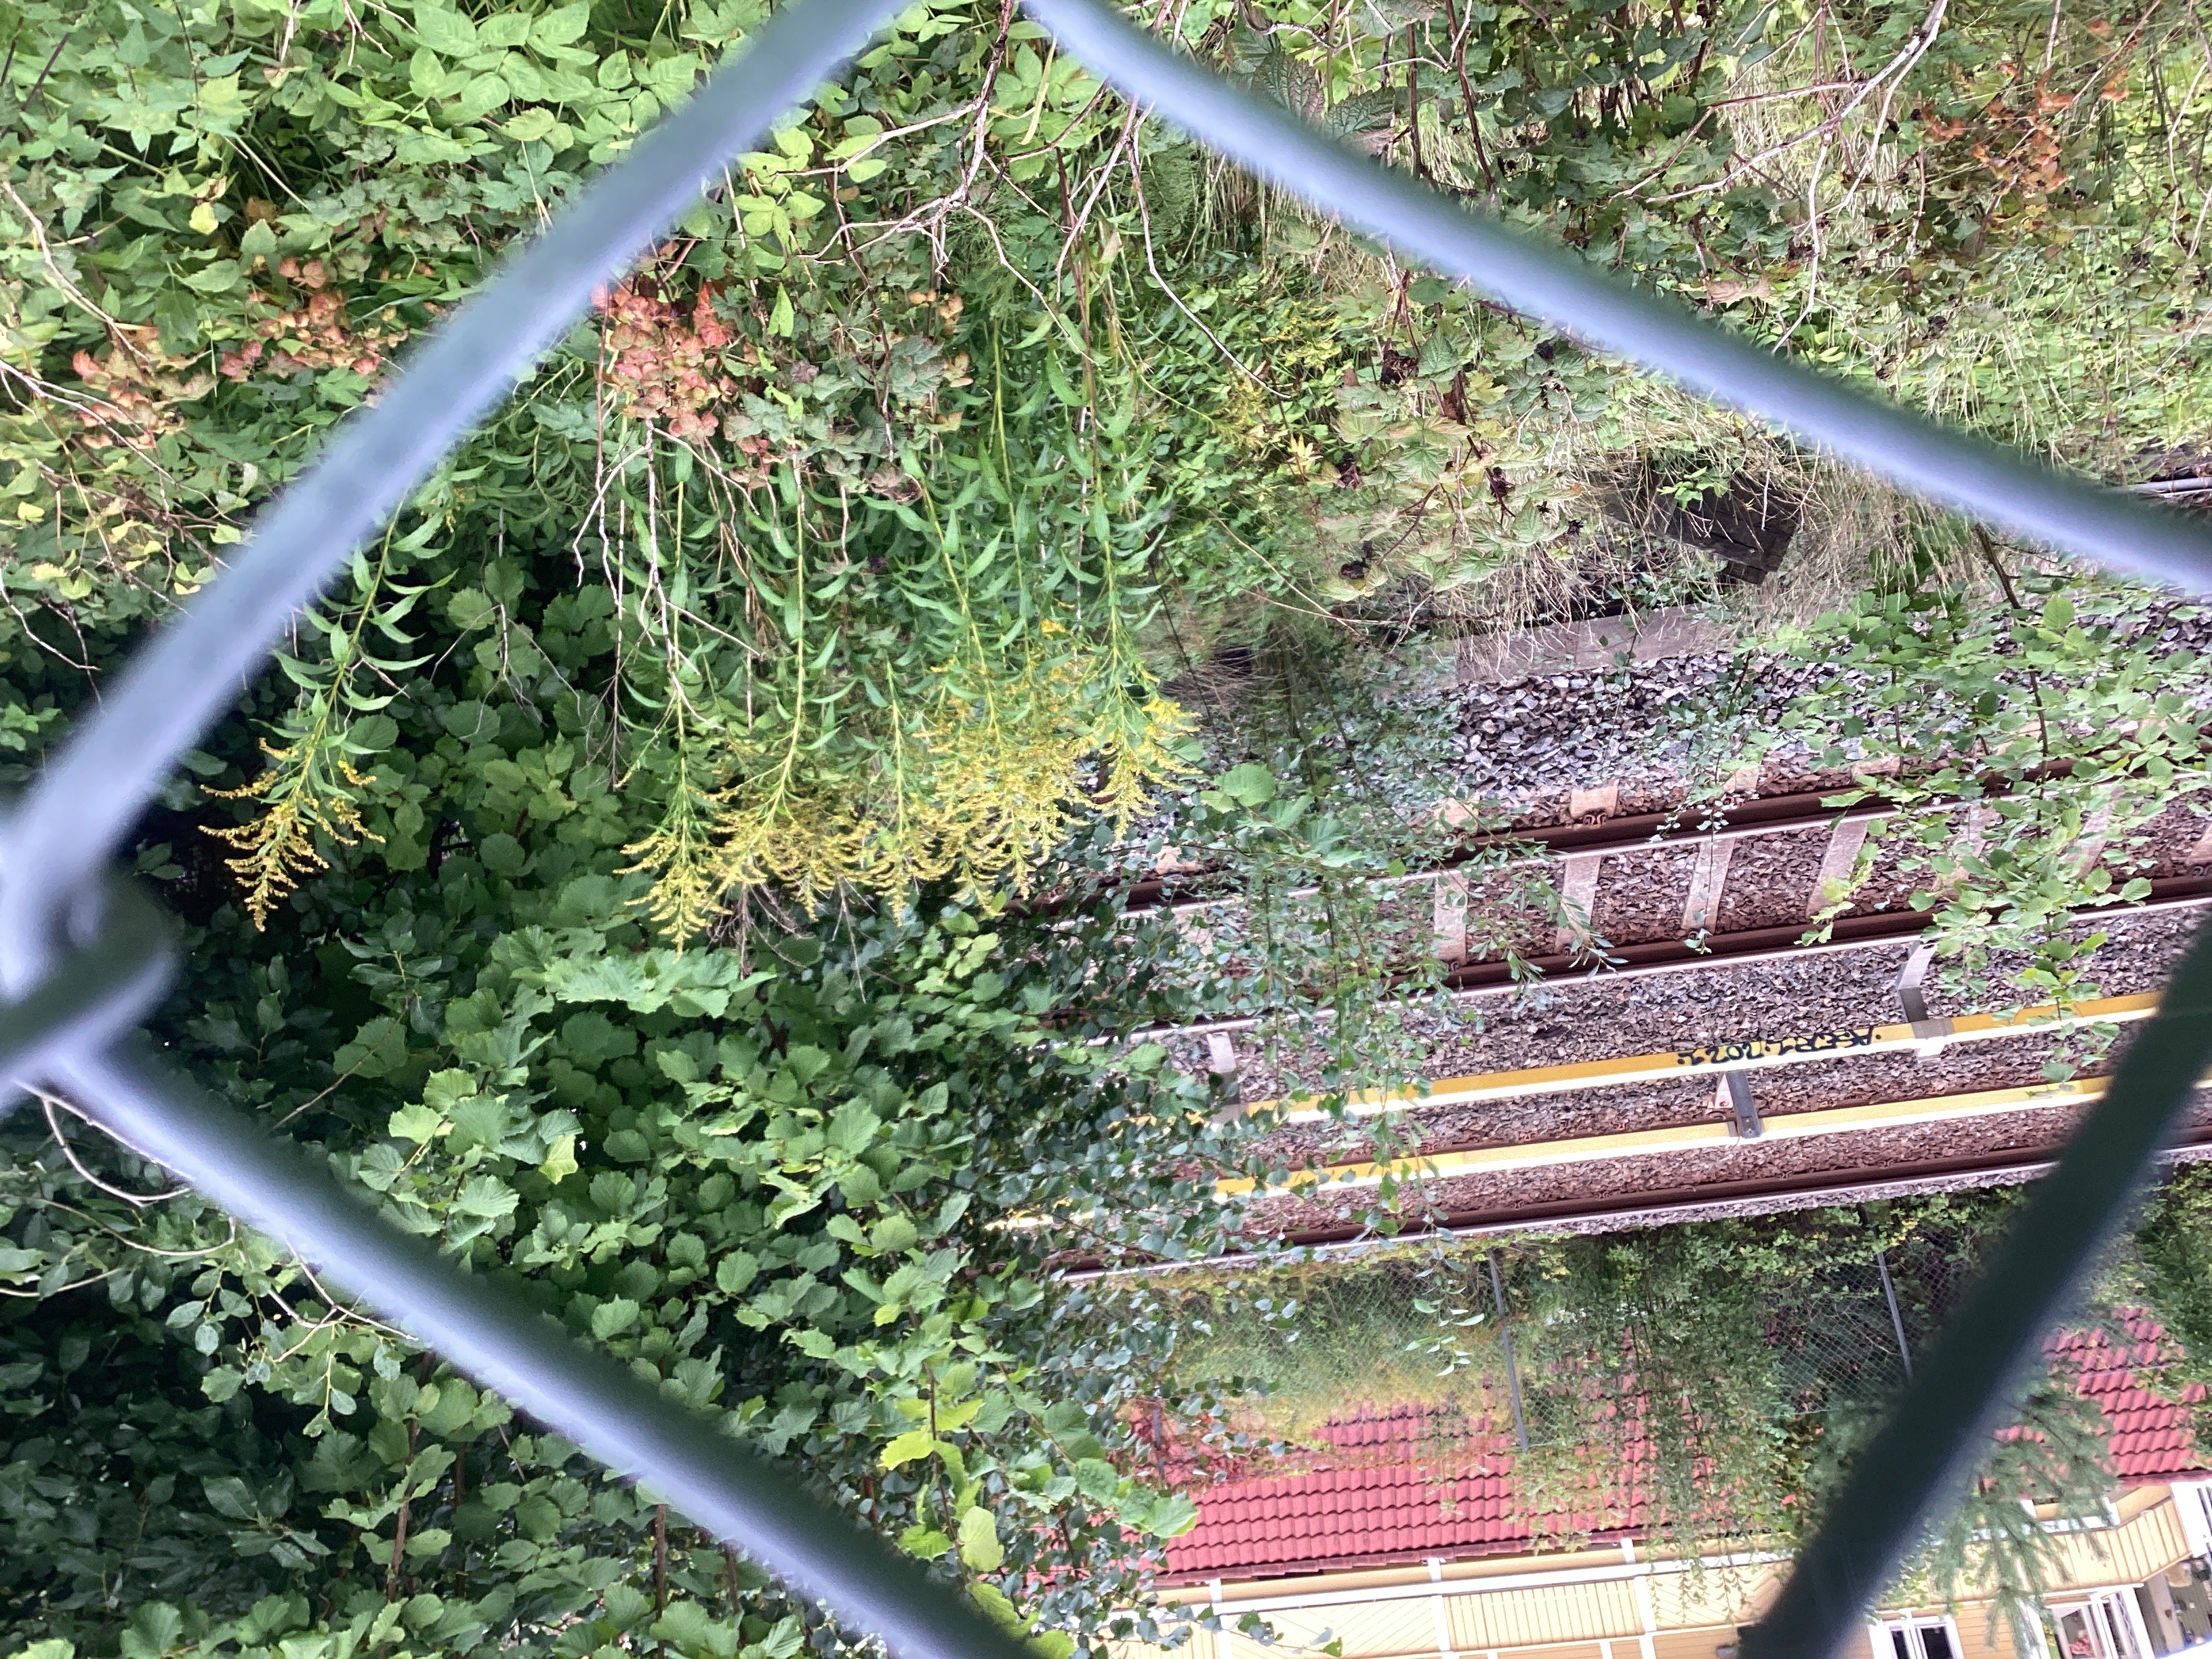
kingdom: Plantae
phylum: Tracheophyta
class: Magnoliopsida
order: Asterales
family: Asteraceae
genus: Solidago
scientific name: Solidago canadensis
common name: kanadagullris
